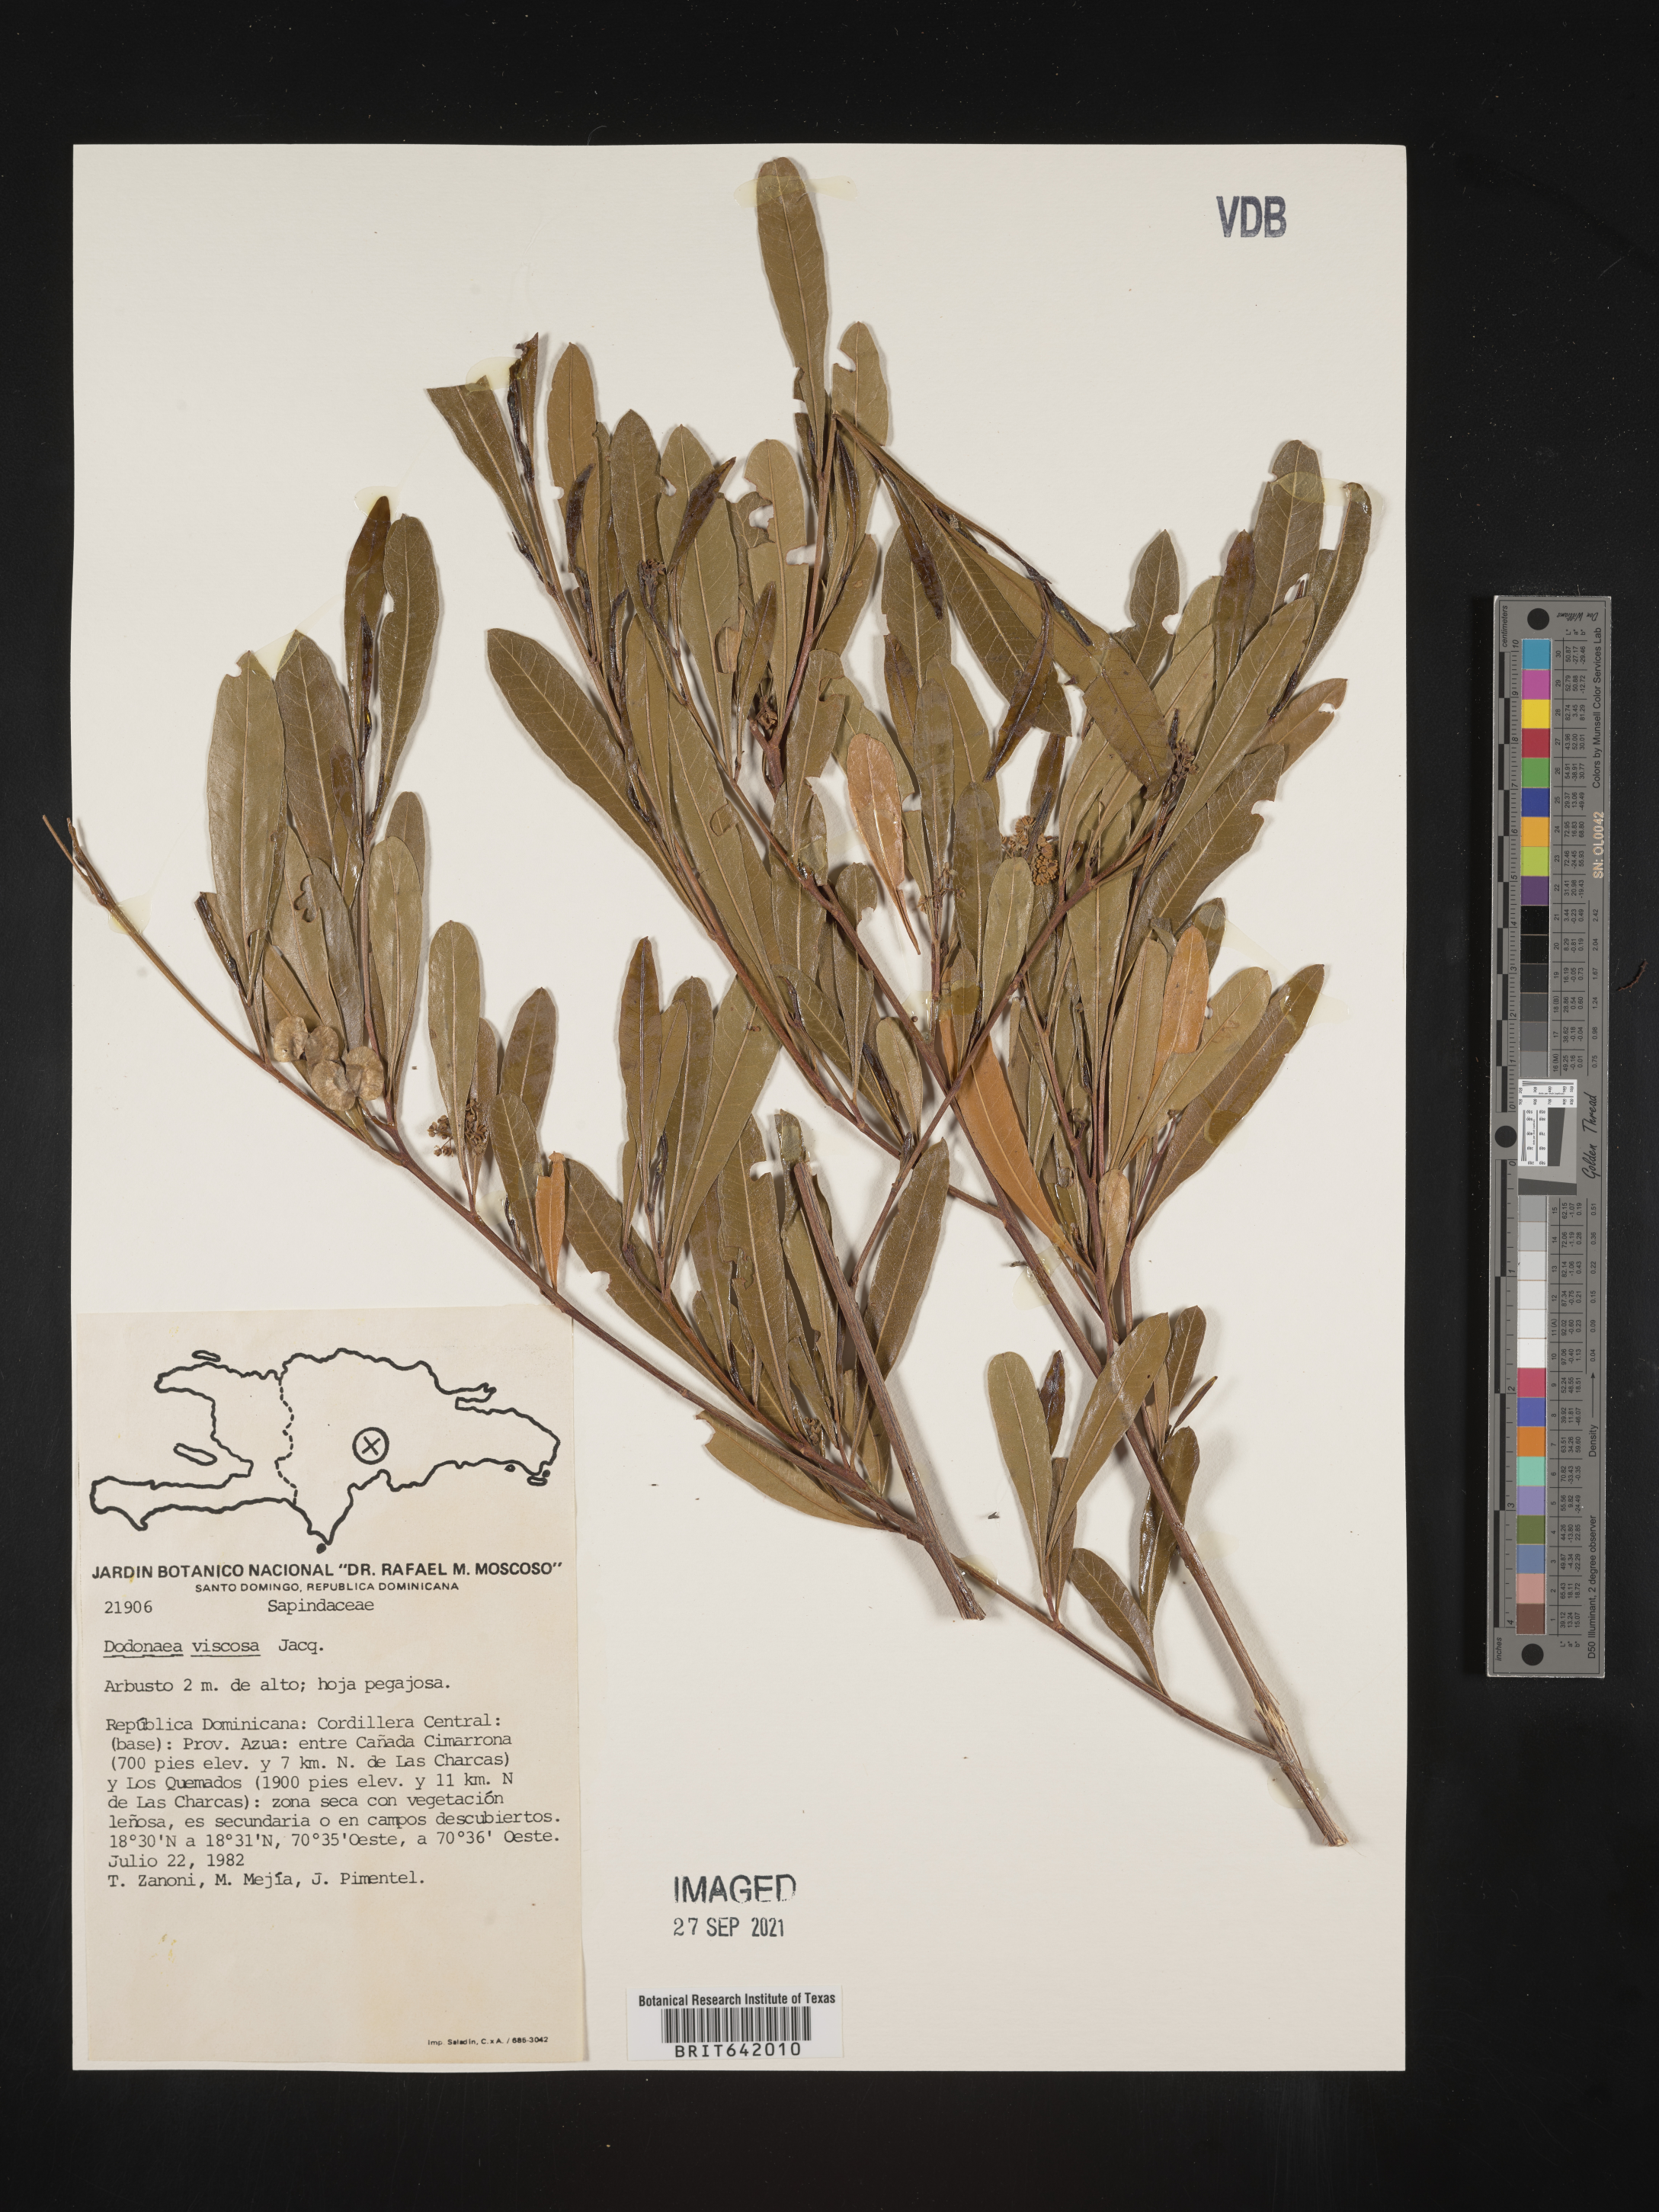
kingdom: Plantae
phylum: Tracheophyta
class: Magnoliopsida
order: Sapindales
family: Sapindaceae
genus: Dodonaea
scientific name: Dodonaea
